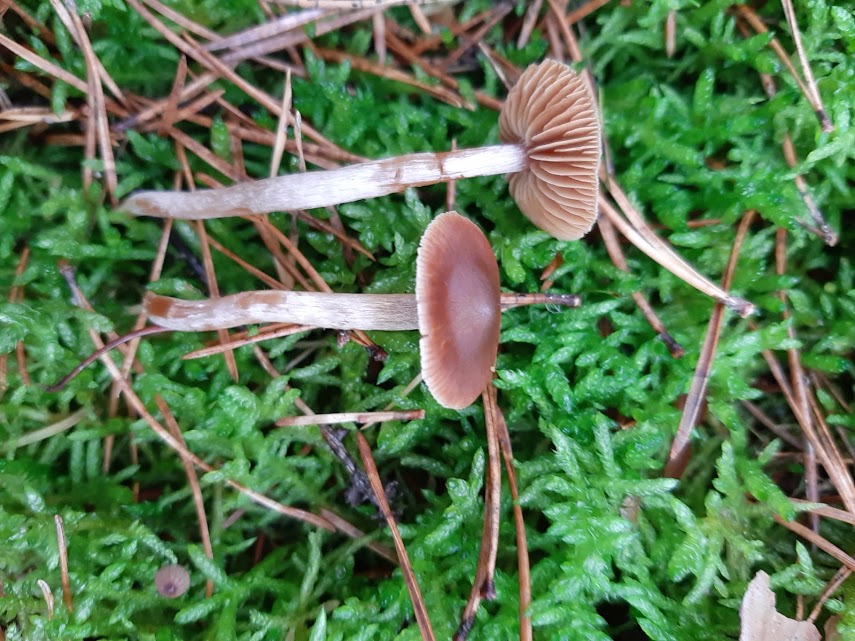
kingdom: Fungi
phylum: Basidiomycota
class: Agaricomycetes
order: Agaricales
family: Cortinariaceae
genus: Cortinarius
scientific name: Cortinarius
